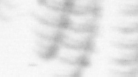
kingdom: Animalia
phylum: Arthropoda
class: Maxillopoda
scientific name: Maxillopoda
